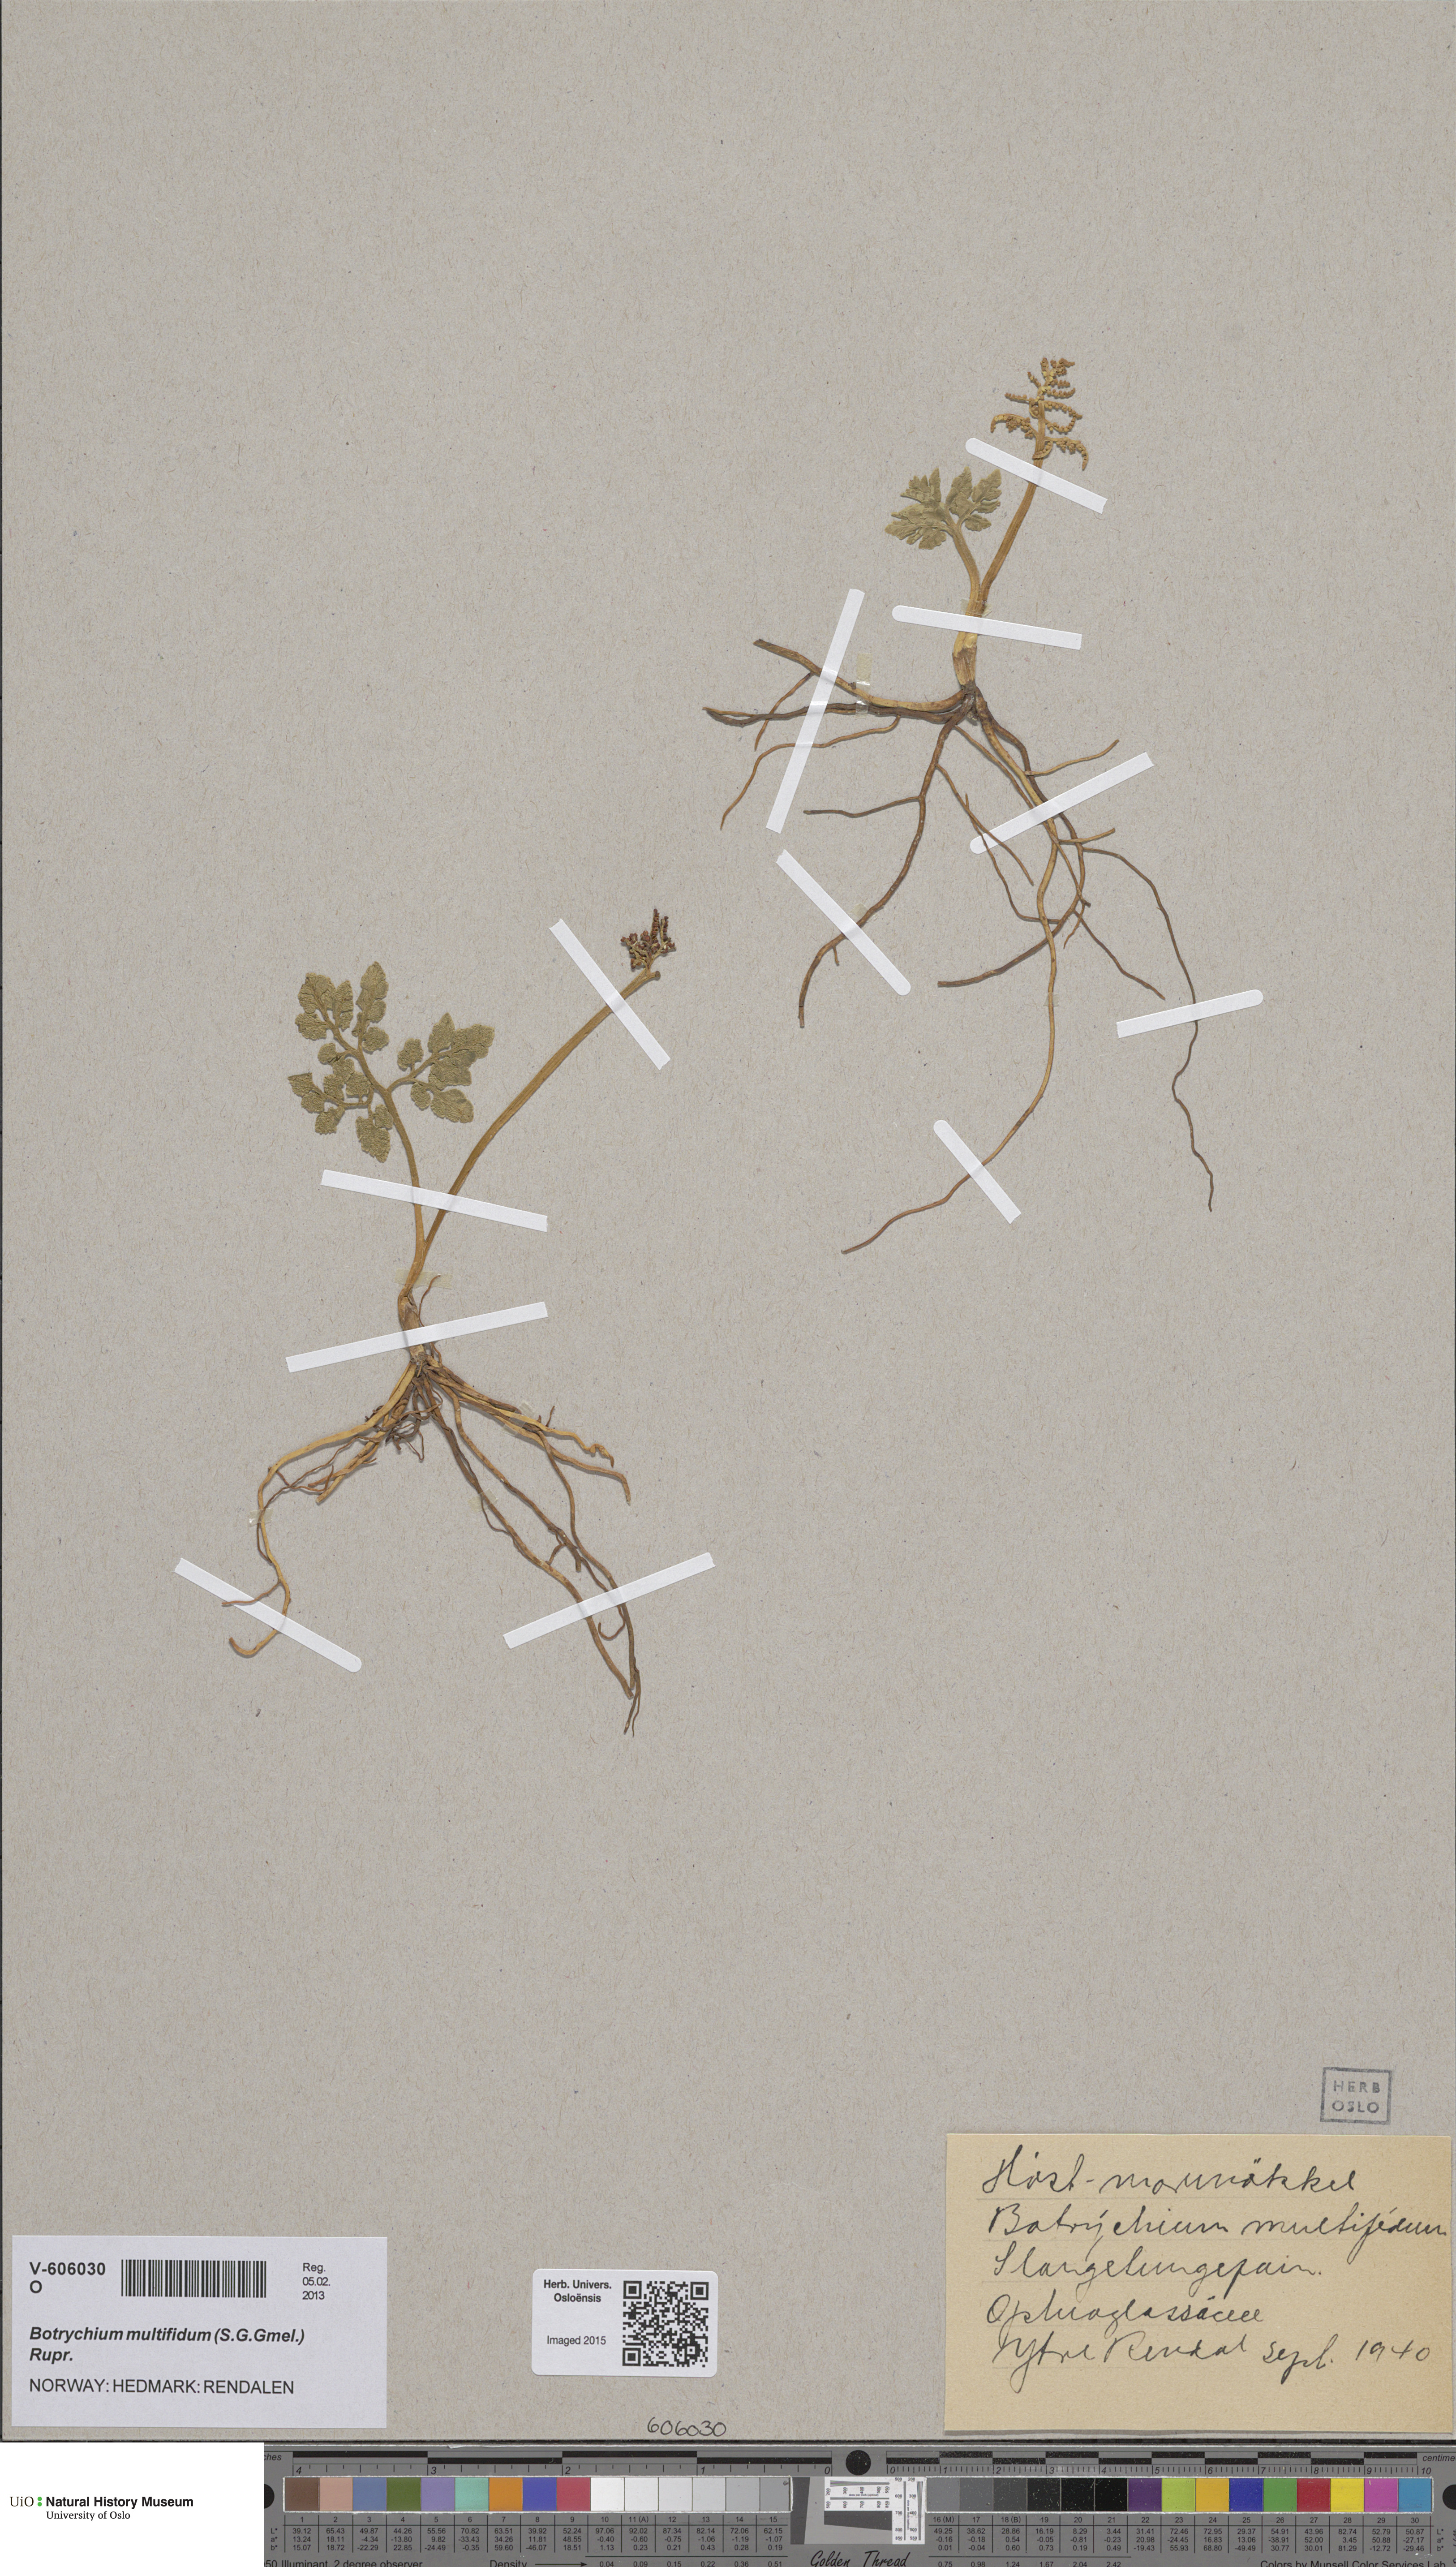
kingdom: Plantae
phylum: Tracheophyta
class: Polypodiopsida
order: Ophioglossales
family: Ophioglossaceae
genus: Sceptridium
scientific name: Sceptridium multifidum
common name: Leathery grape fern
